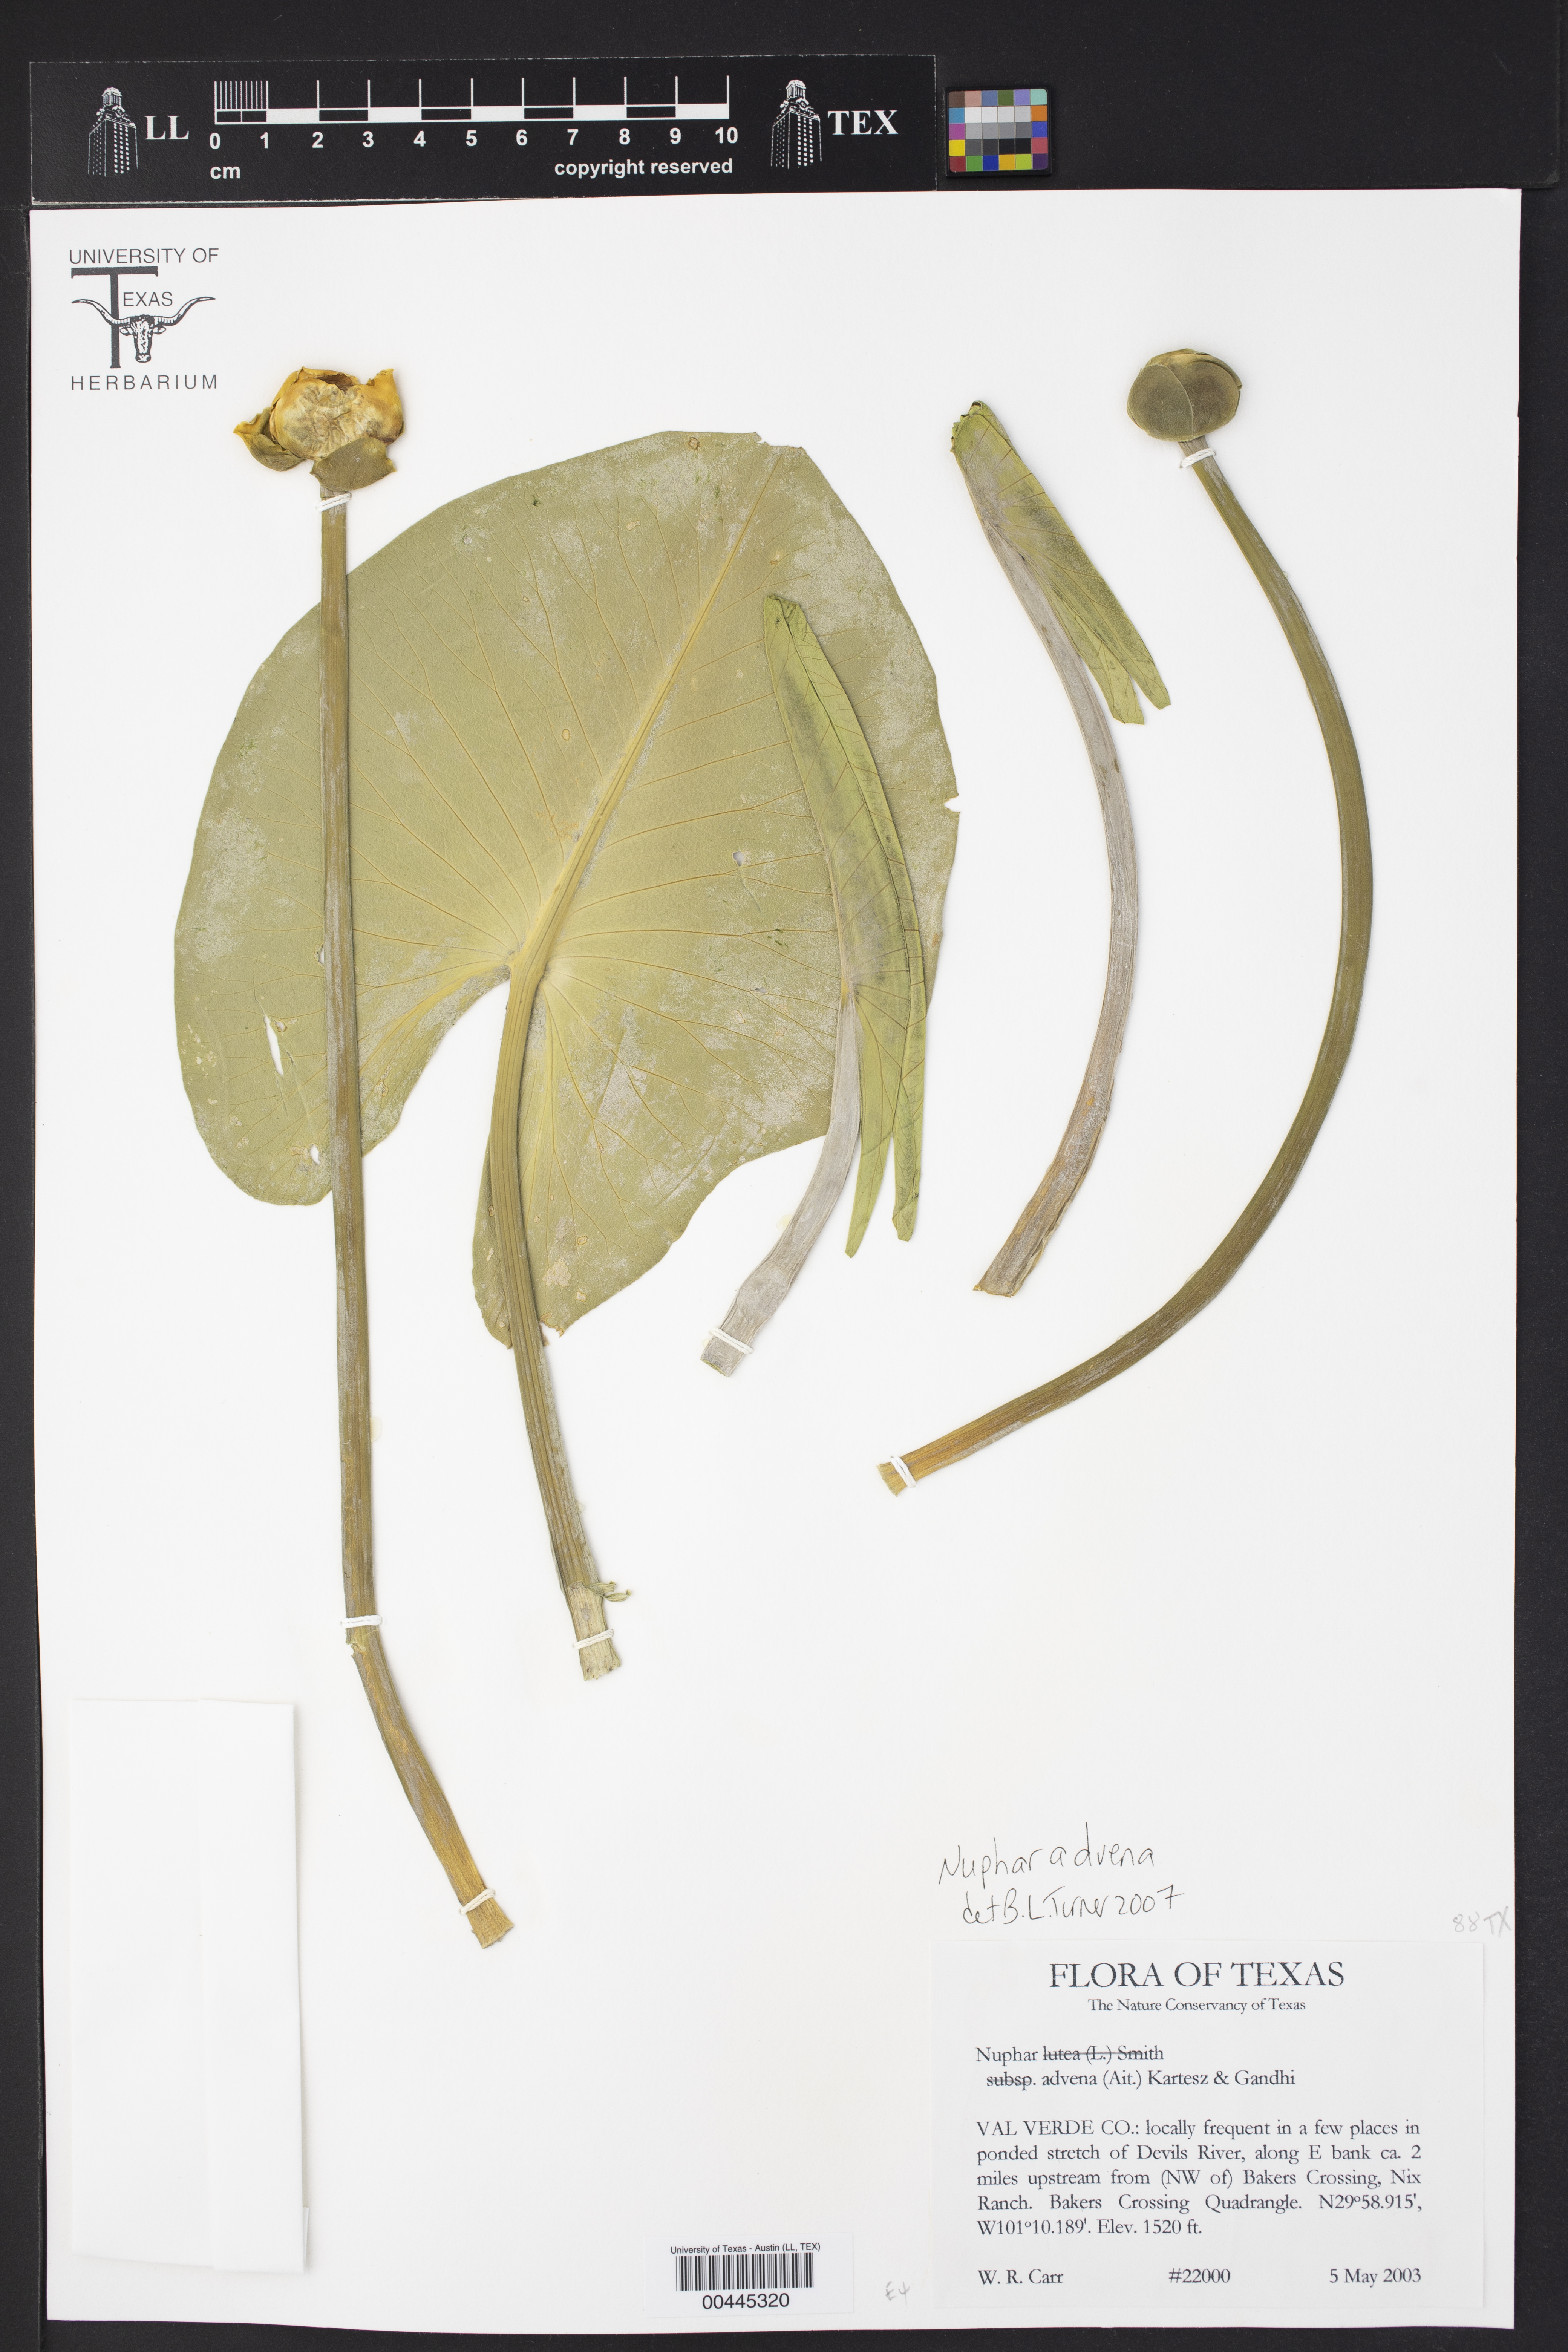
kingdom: Plantae
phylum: Tracheophyta
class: Magnoliopsida
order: Nymphaeales
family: Nymphaeaceae
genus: Nuphar
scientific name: Nuphar advena
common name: Spatter-dock
